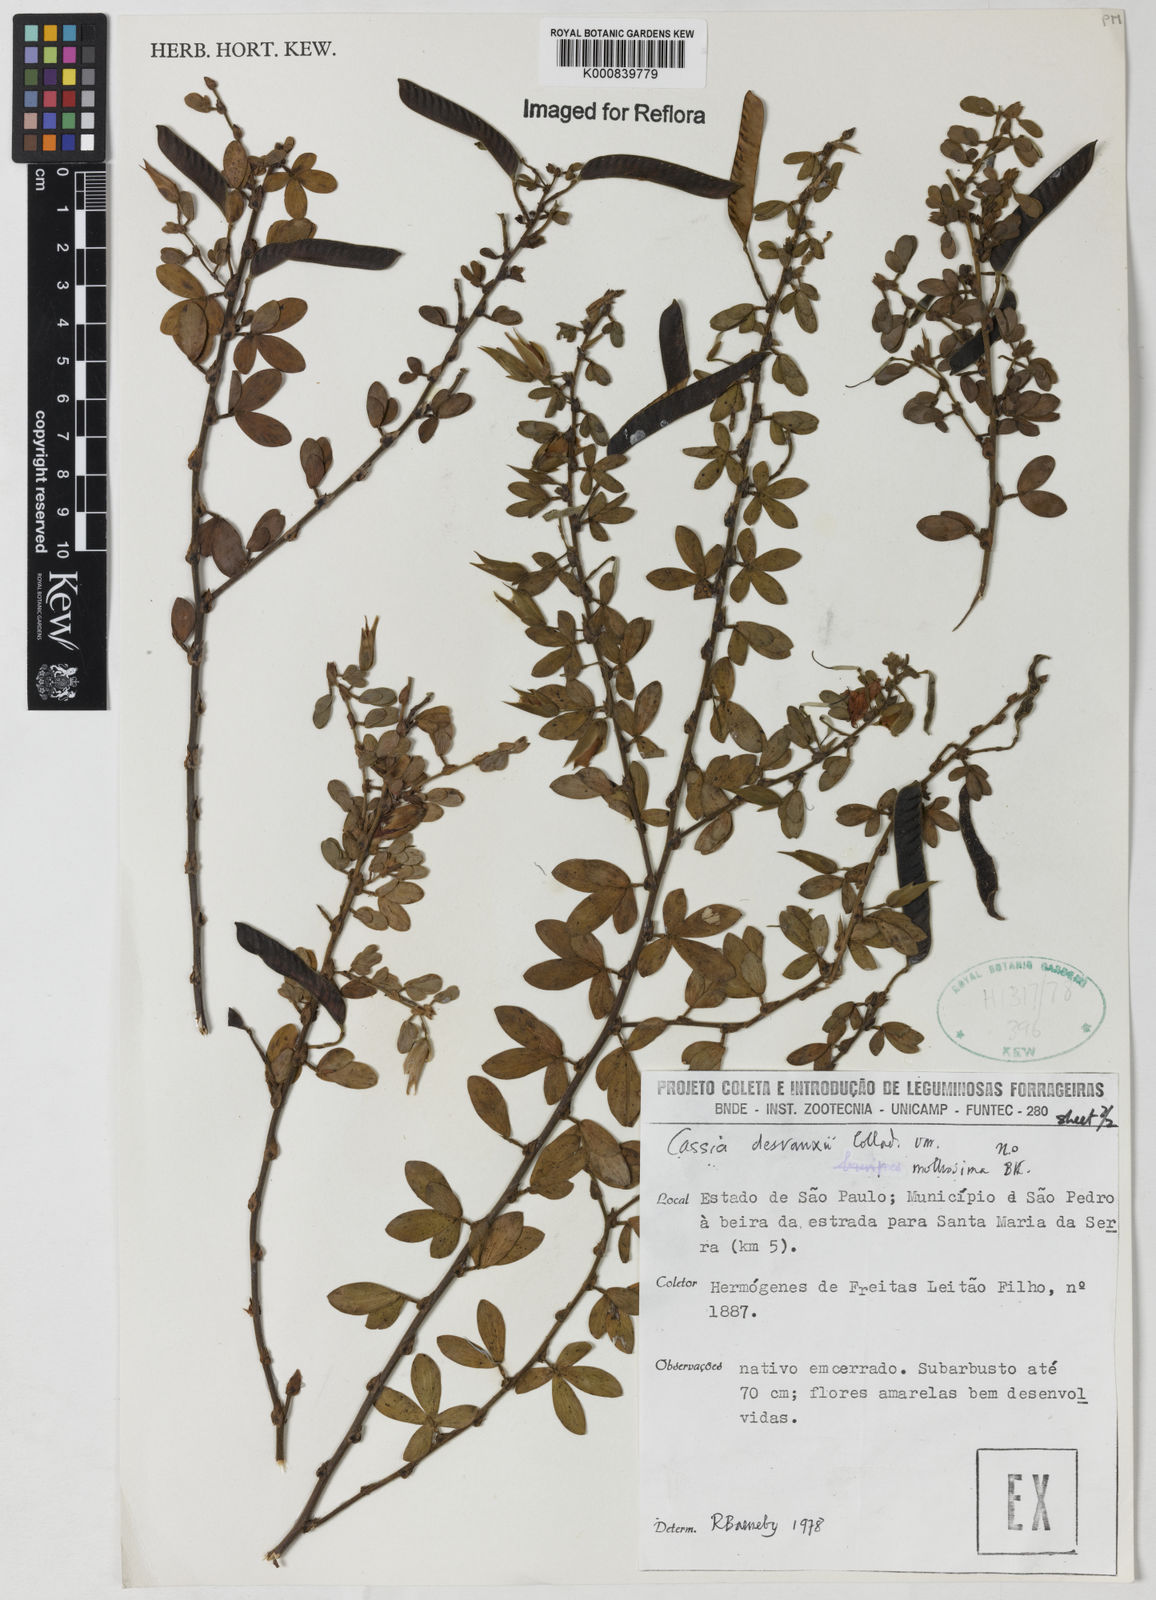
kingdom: Plantae
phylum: Tracheophyta
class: Magnoliopsida
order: Fabales
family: Fabaceae
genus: Chamaecrista
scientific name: Chamaecrista desvauxii
